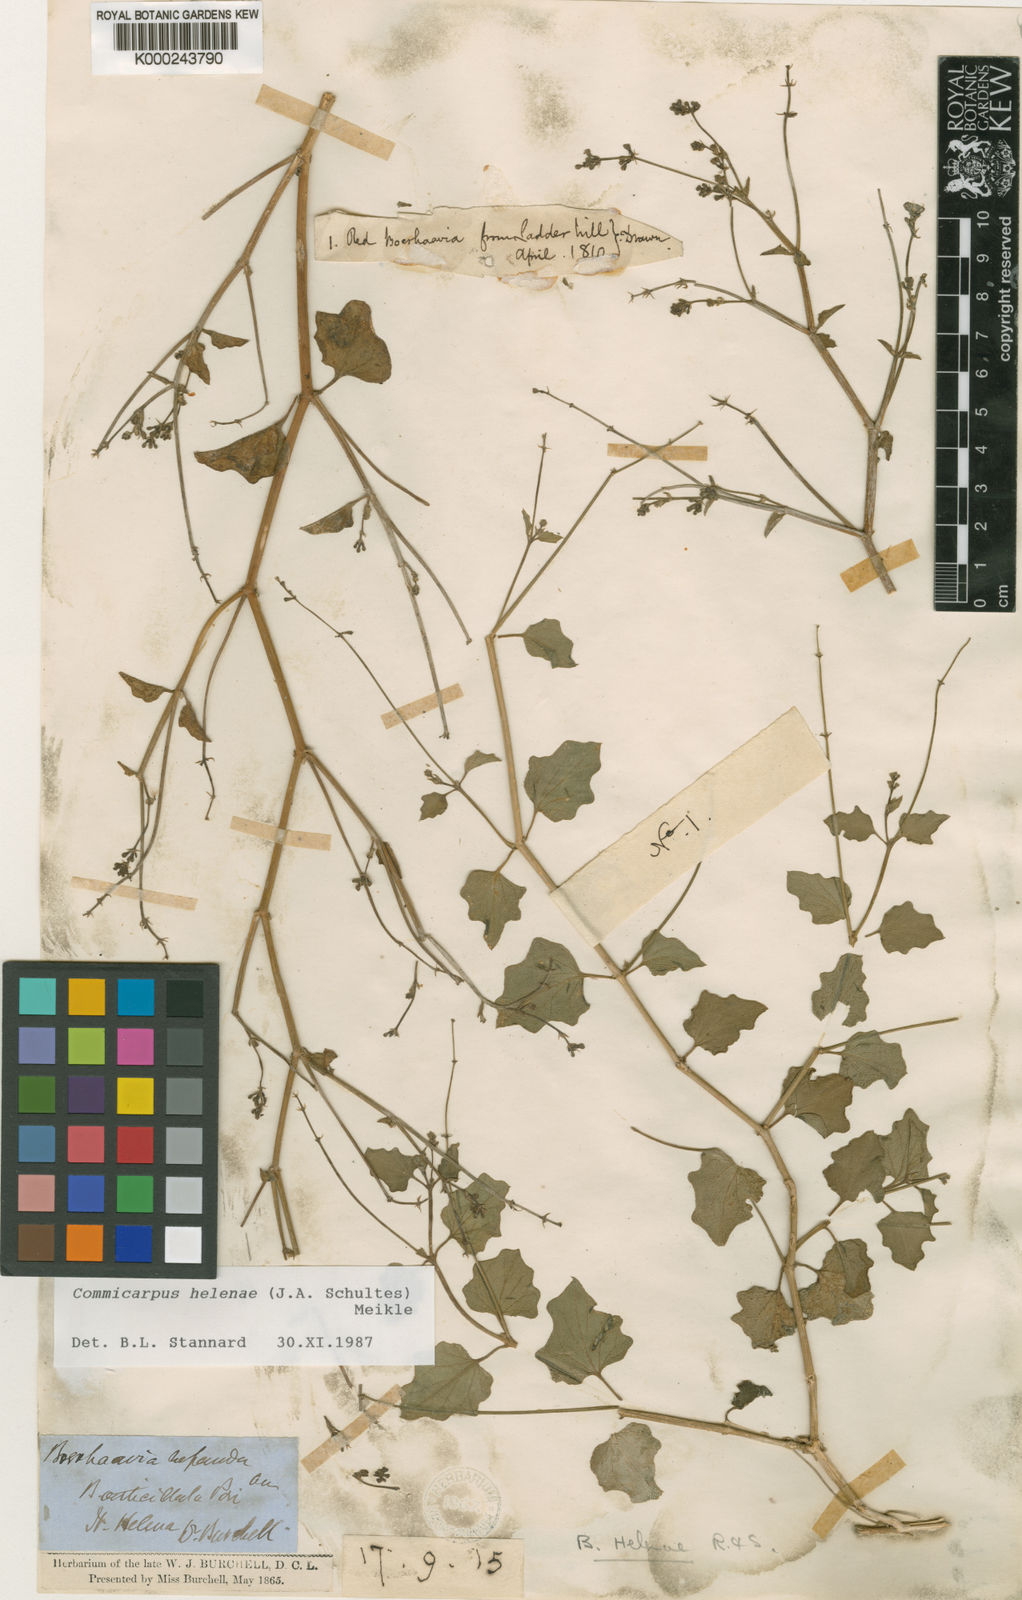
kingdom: Plantae
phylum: Tracheophyta
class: Magnoliopsida
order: Caryophyllales
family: Nyctaginaceae
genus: Commicarpus
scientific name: Commicarpus helenae
